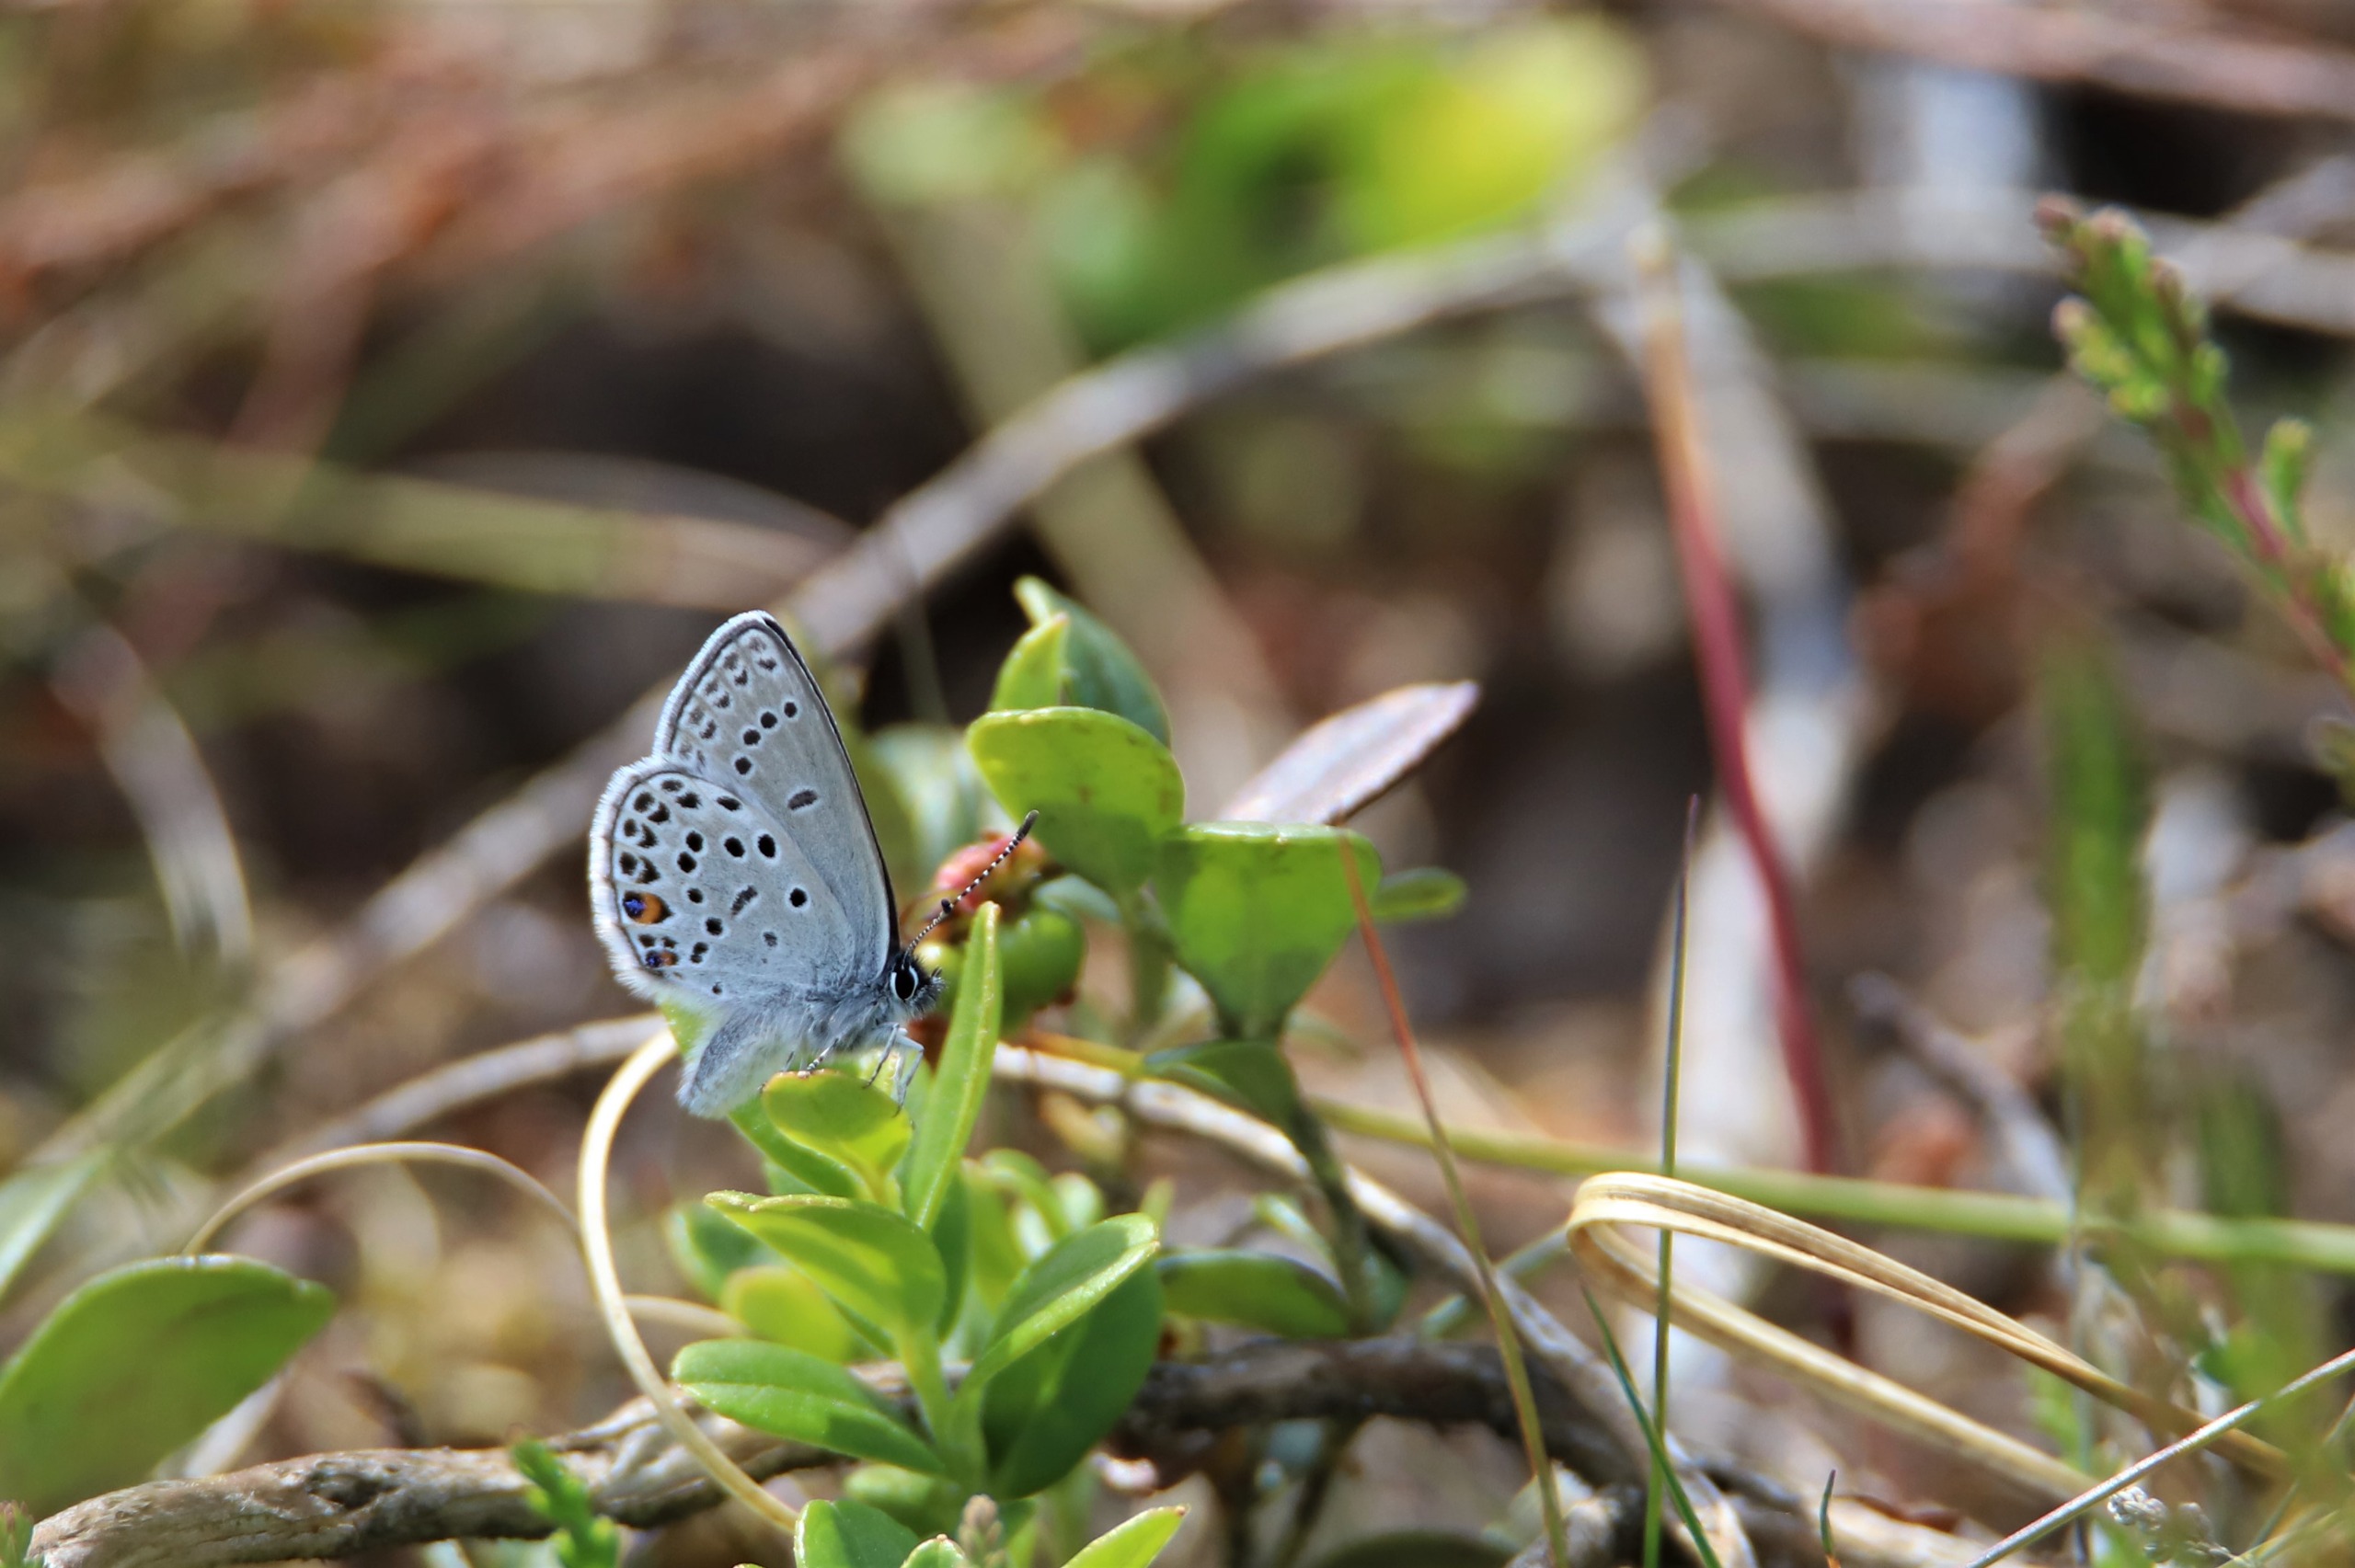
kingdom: Animalia
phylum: Arthropoda
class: Insecta
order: Lepidoptera
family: Lycaenidae
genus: Vacciniina
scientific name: Vacciniina optilete
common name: Bølleblåfugl
